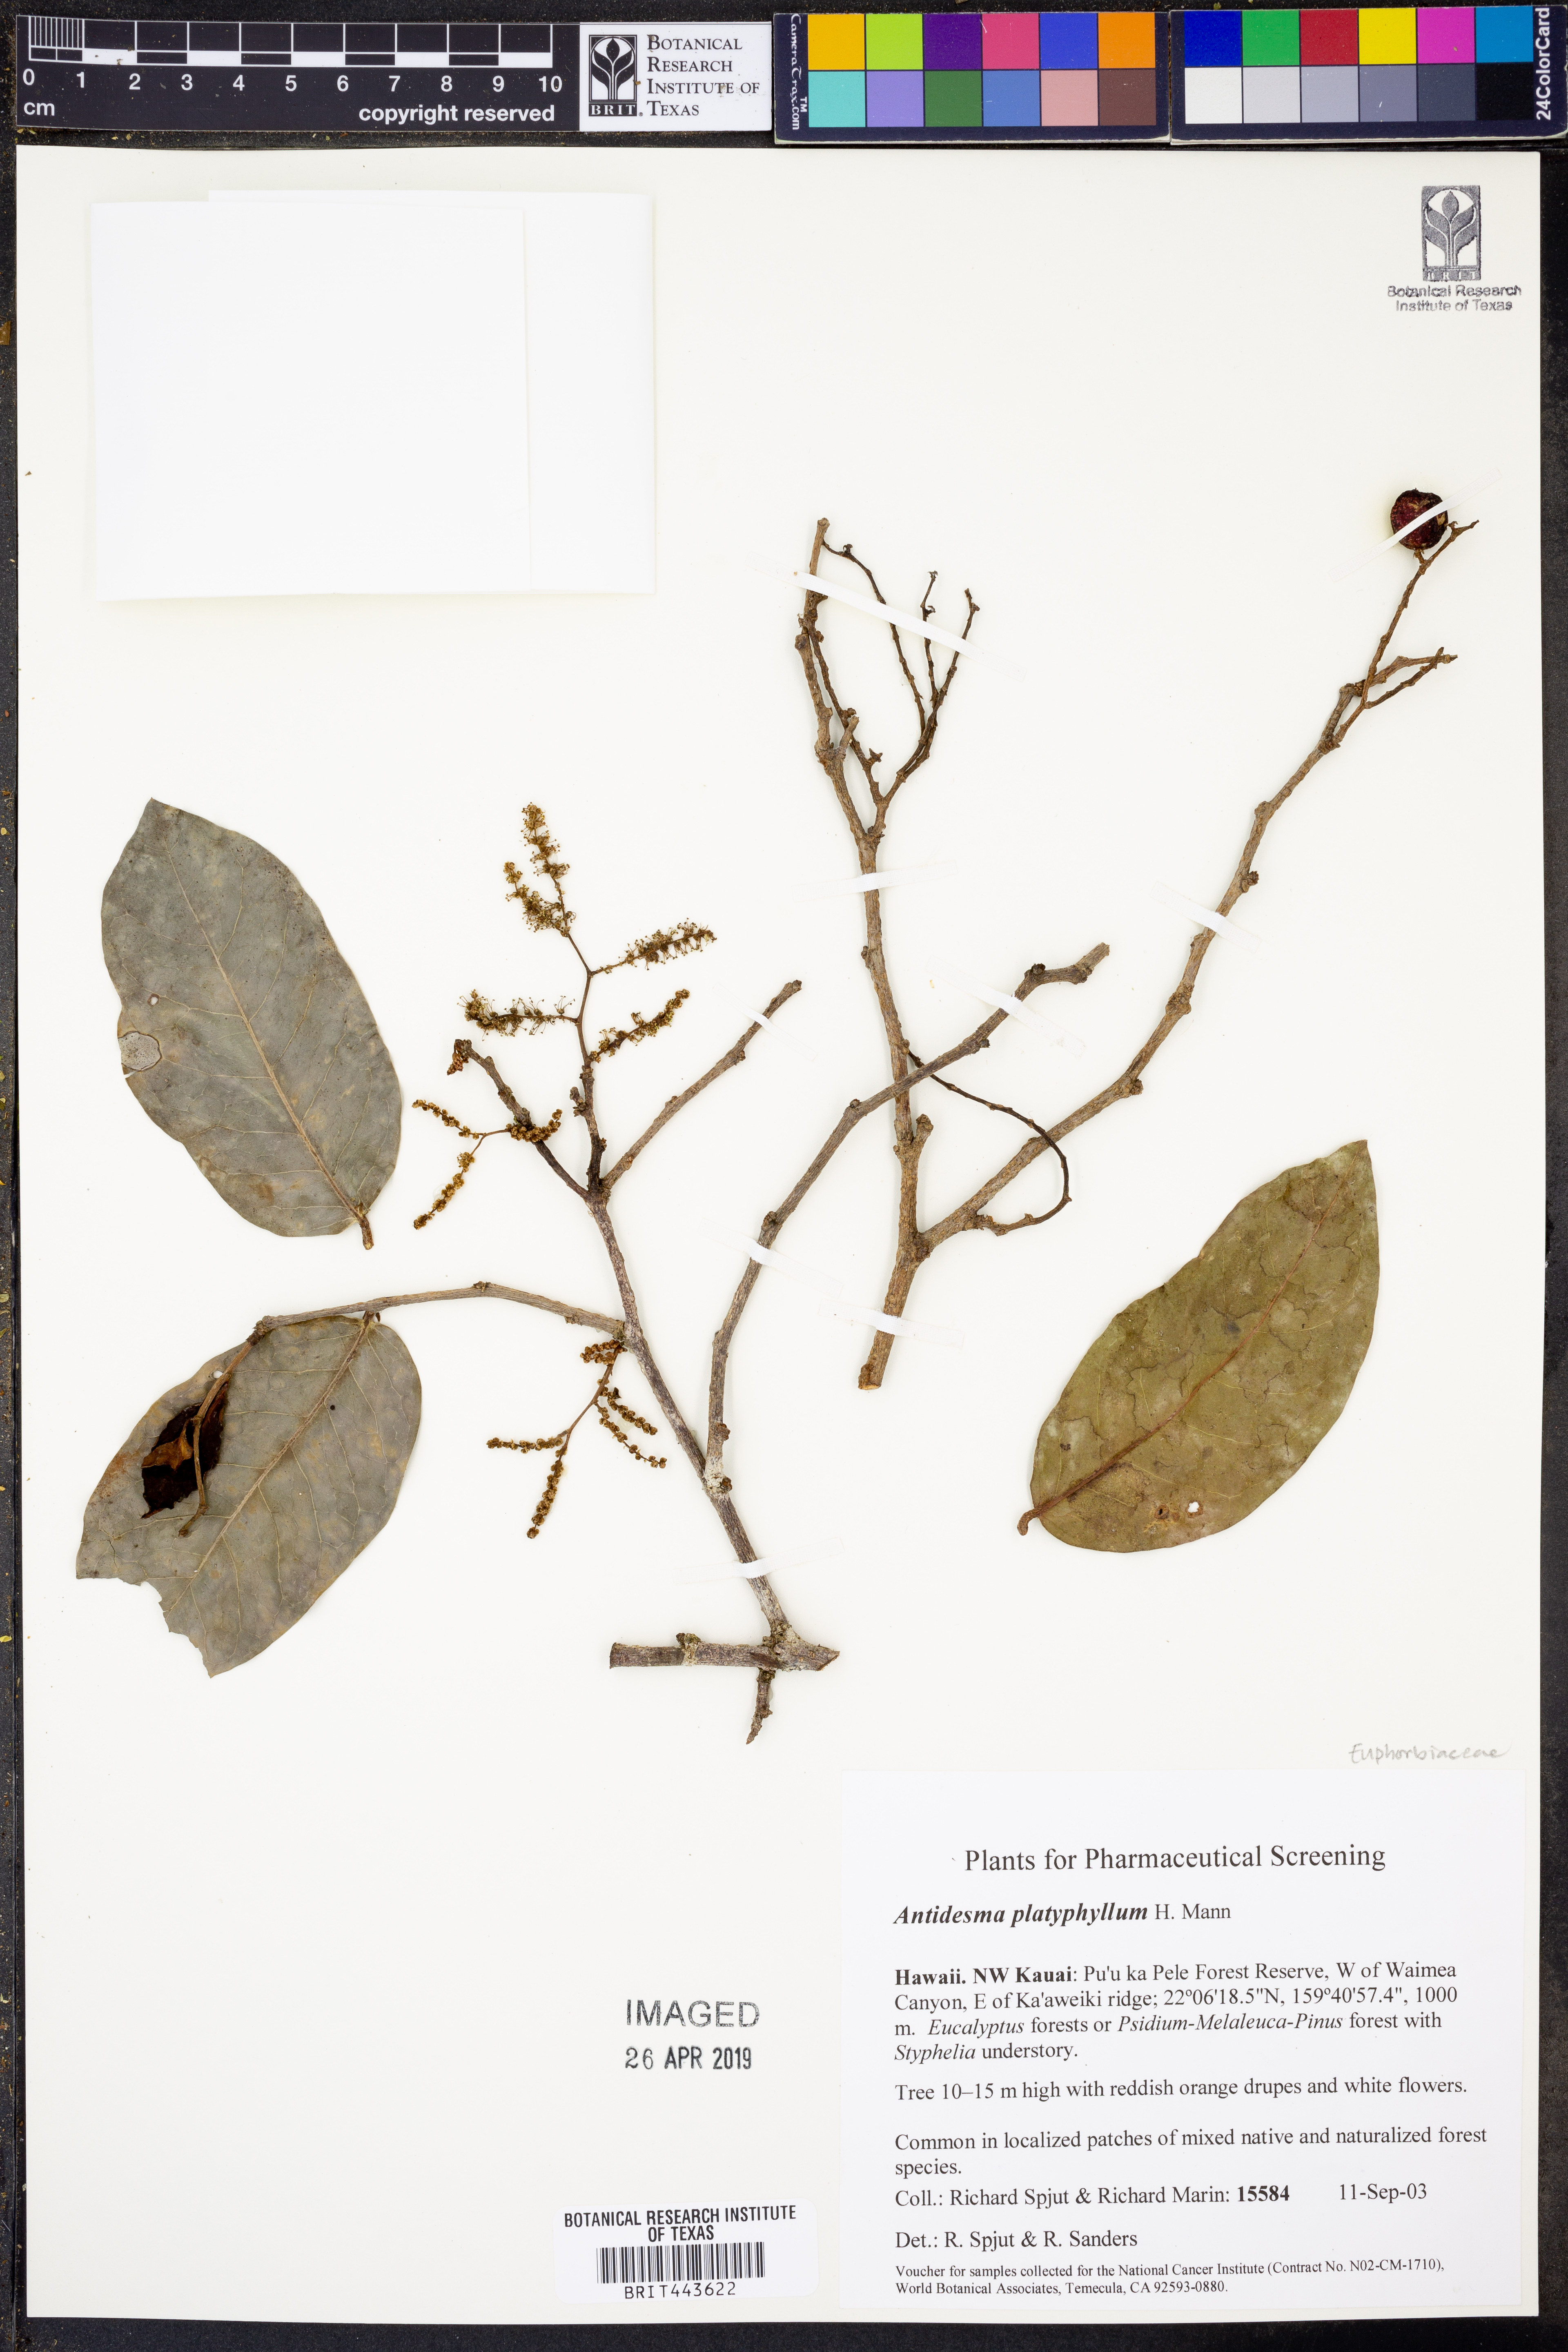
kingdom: Plantae
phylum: Tracheophyta
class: Magnoliopsida
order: Malpighiales
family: Phyllanthaceae
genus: Antidesma
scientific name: Antidesma platyphyllum
